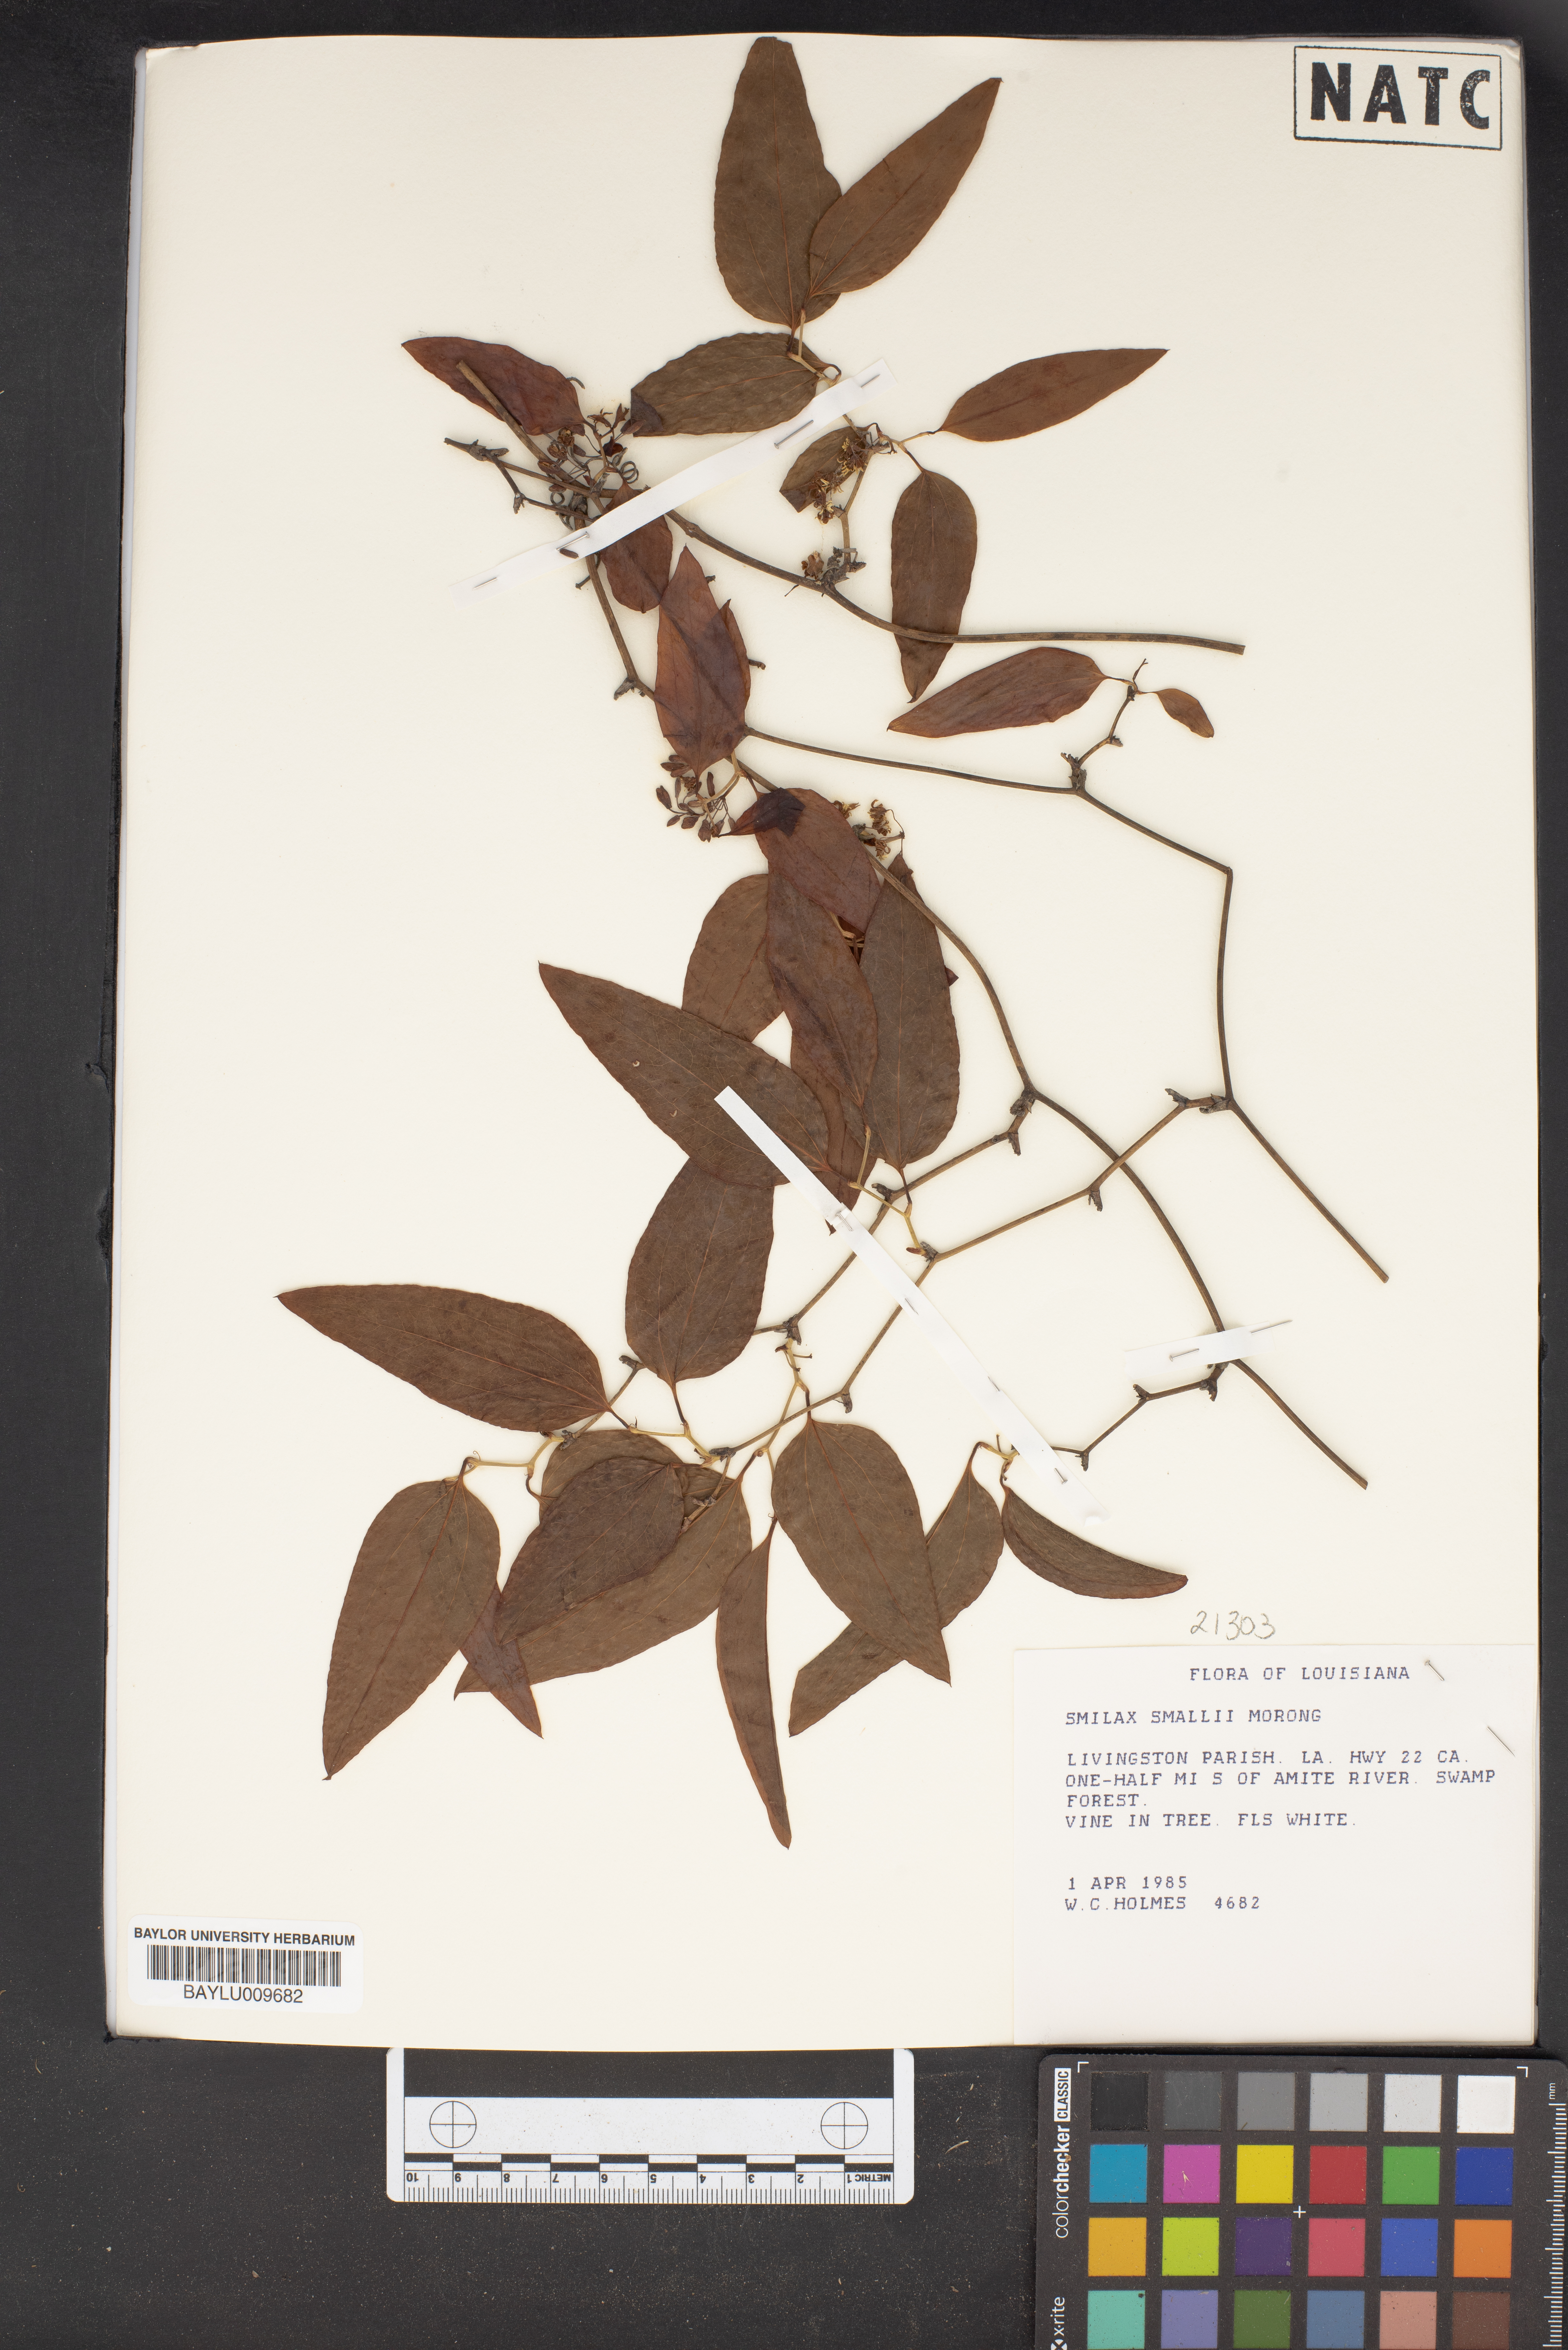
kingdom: Plantae
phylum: Tracheophyta
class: Liliopsida
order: Liliales
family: Smilacaceae
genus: Smilax
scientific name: Smilax maritima
